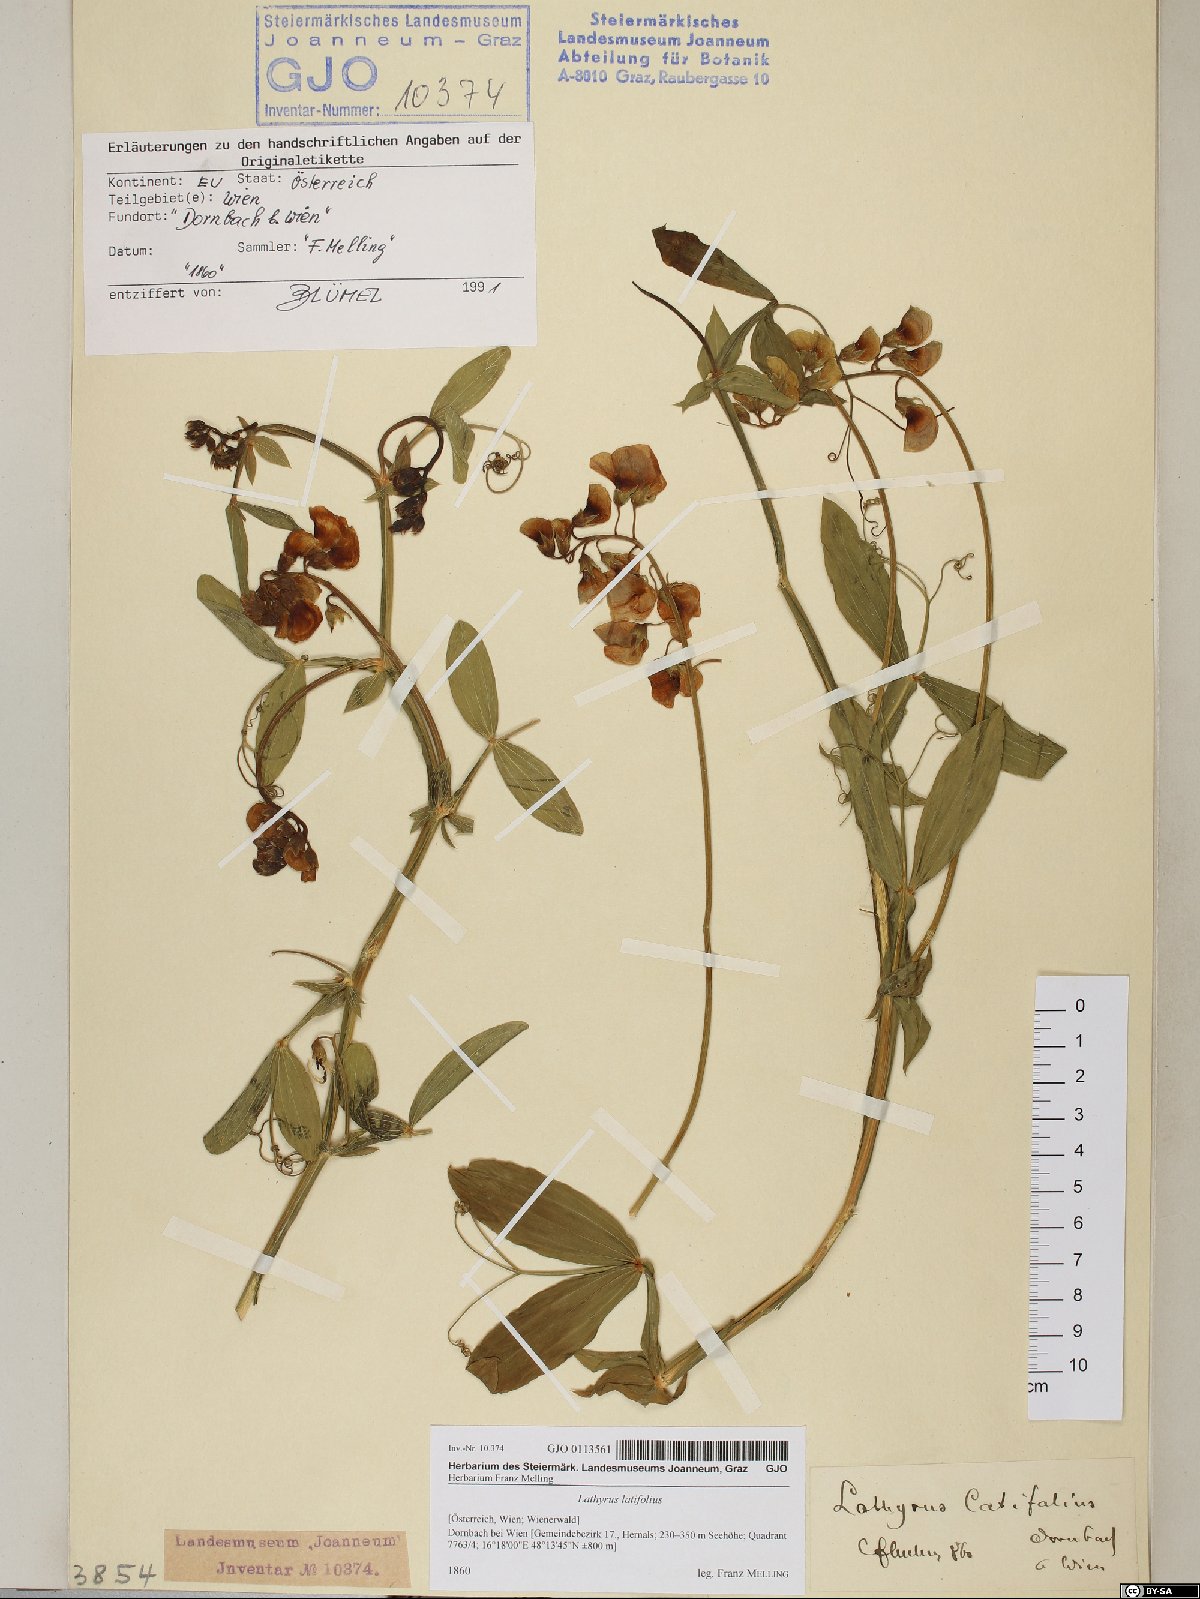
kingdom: Plantae
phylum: Tracheophyta
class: Magnoliopsida
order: Fabales
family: Fabaceae
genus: Lathyrus
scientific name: Lathyrus latifolius
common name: Perennial pea
